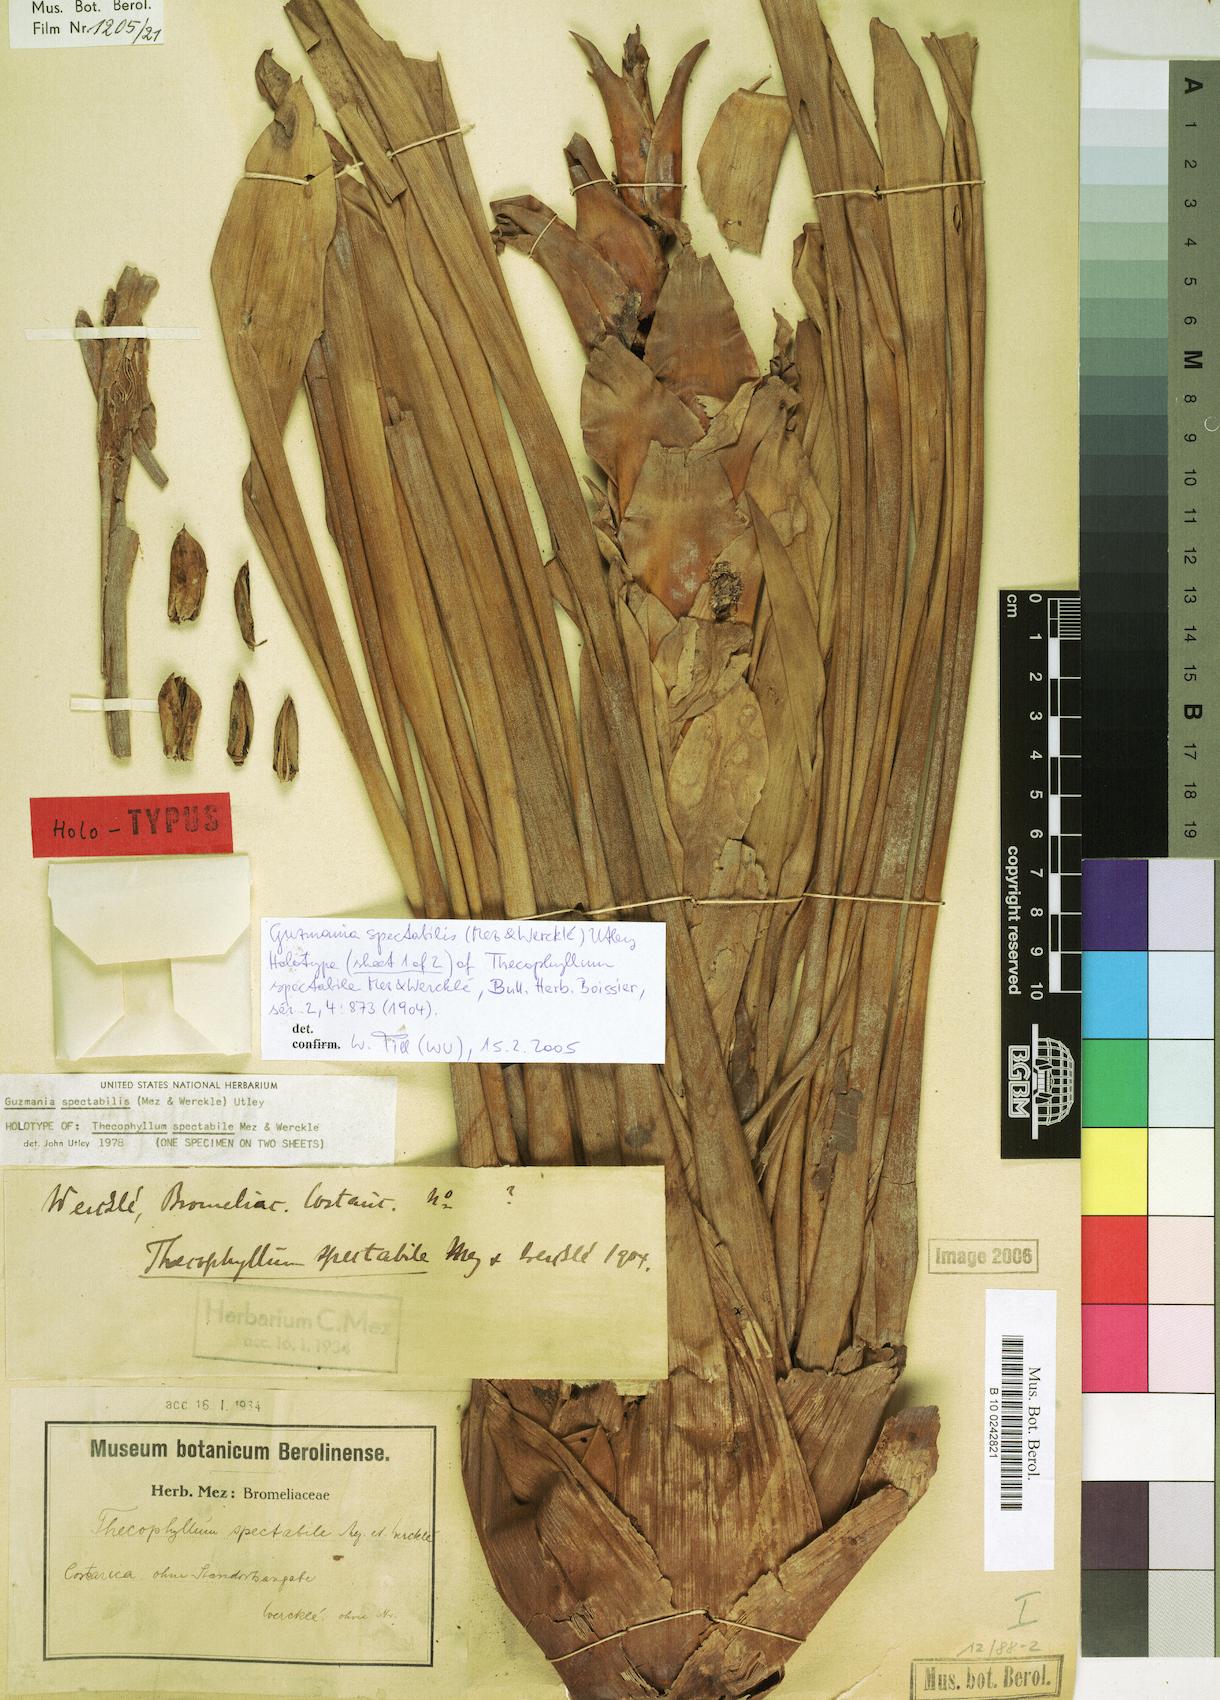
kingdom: Plantae
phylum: Tracheophyta
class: Liliopsida
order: Poales
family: Bromeliaceae
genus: Guzmania
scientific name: Guzmania anae
